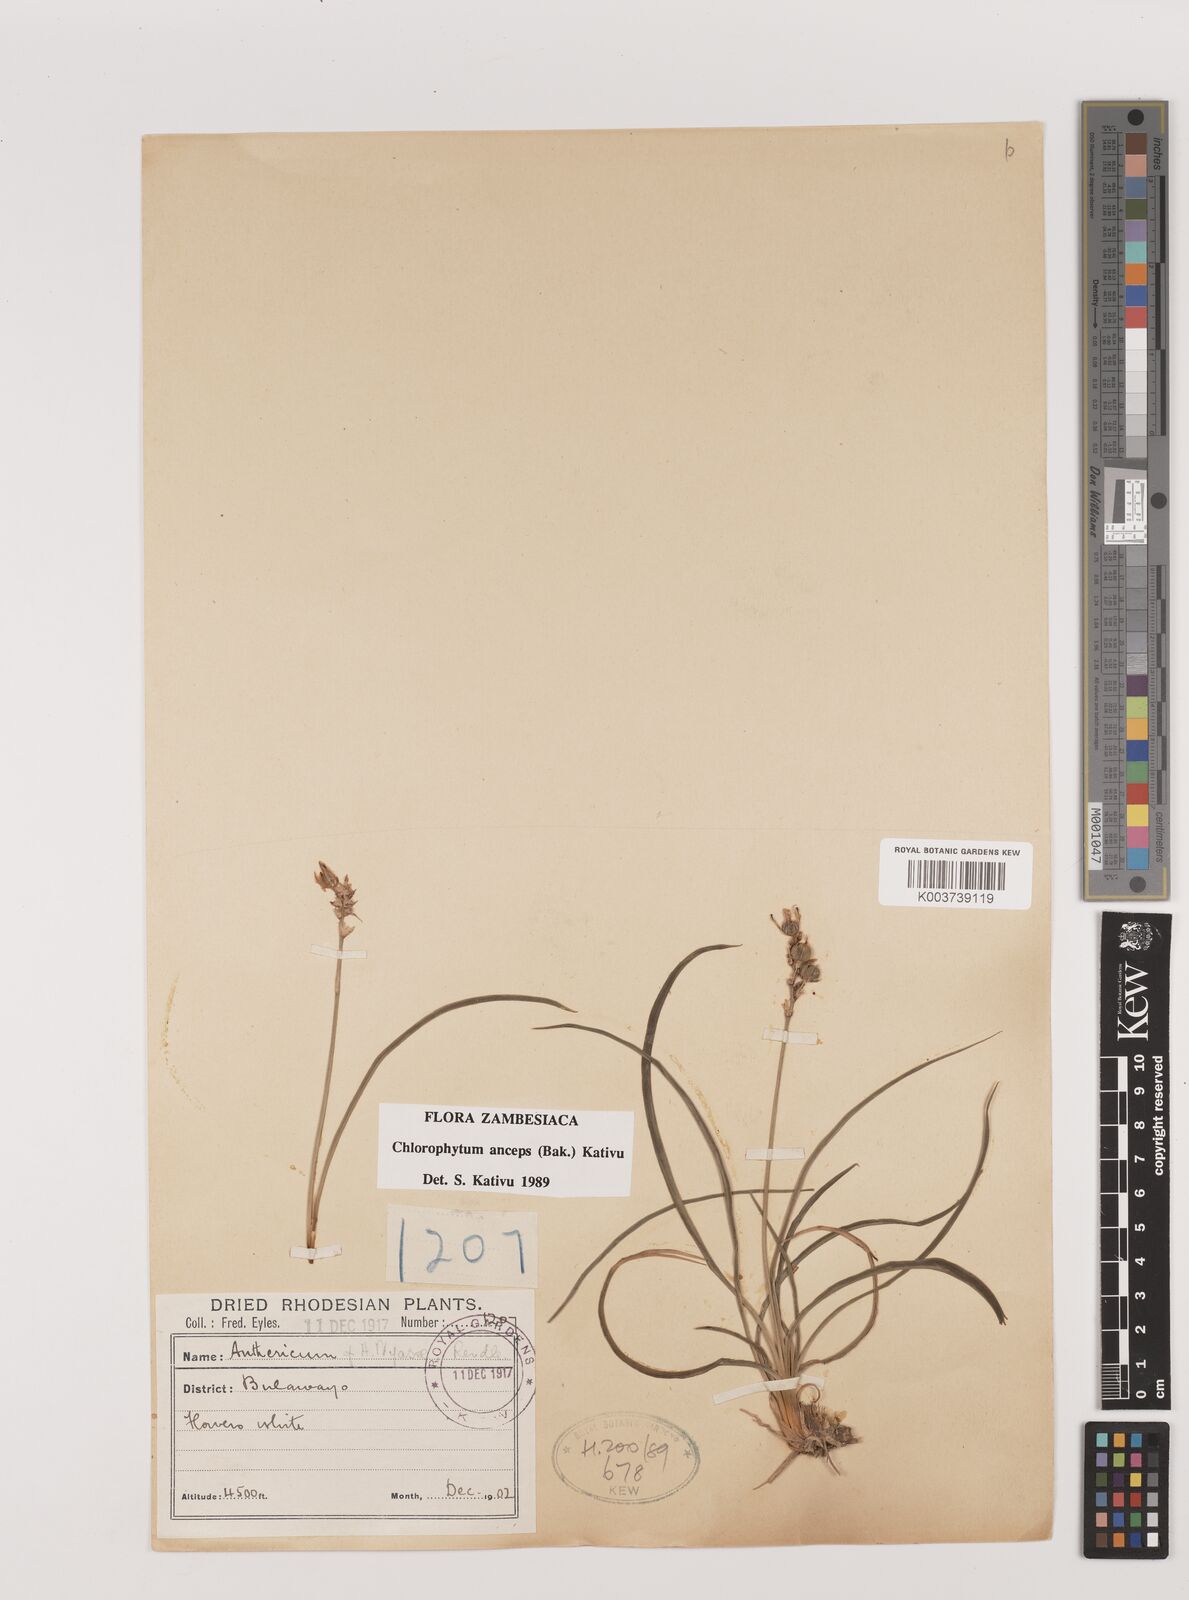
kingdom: Plantae
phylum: Tracheophyta
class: Liliopsida
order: Asparagales
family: Asparagaceae
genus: Chlorophytum
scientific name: Chlorophytum anceps
